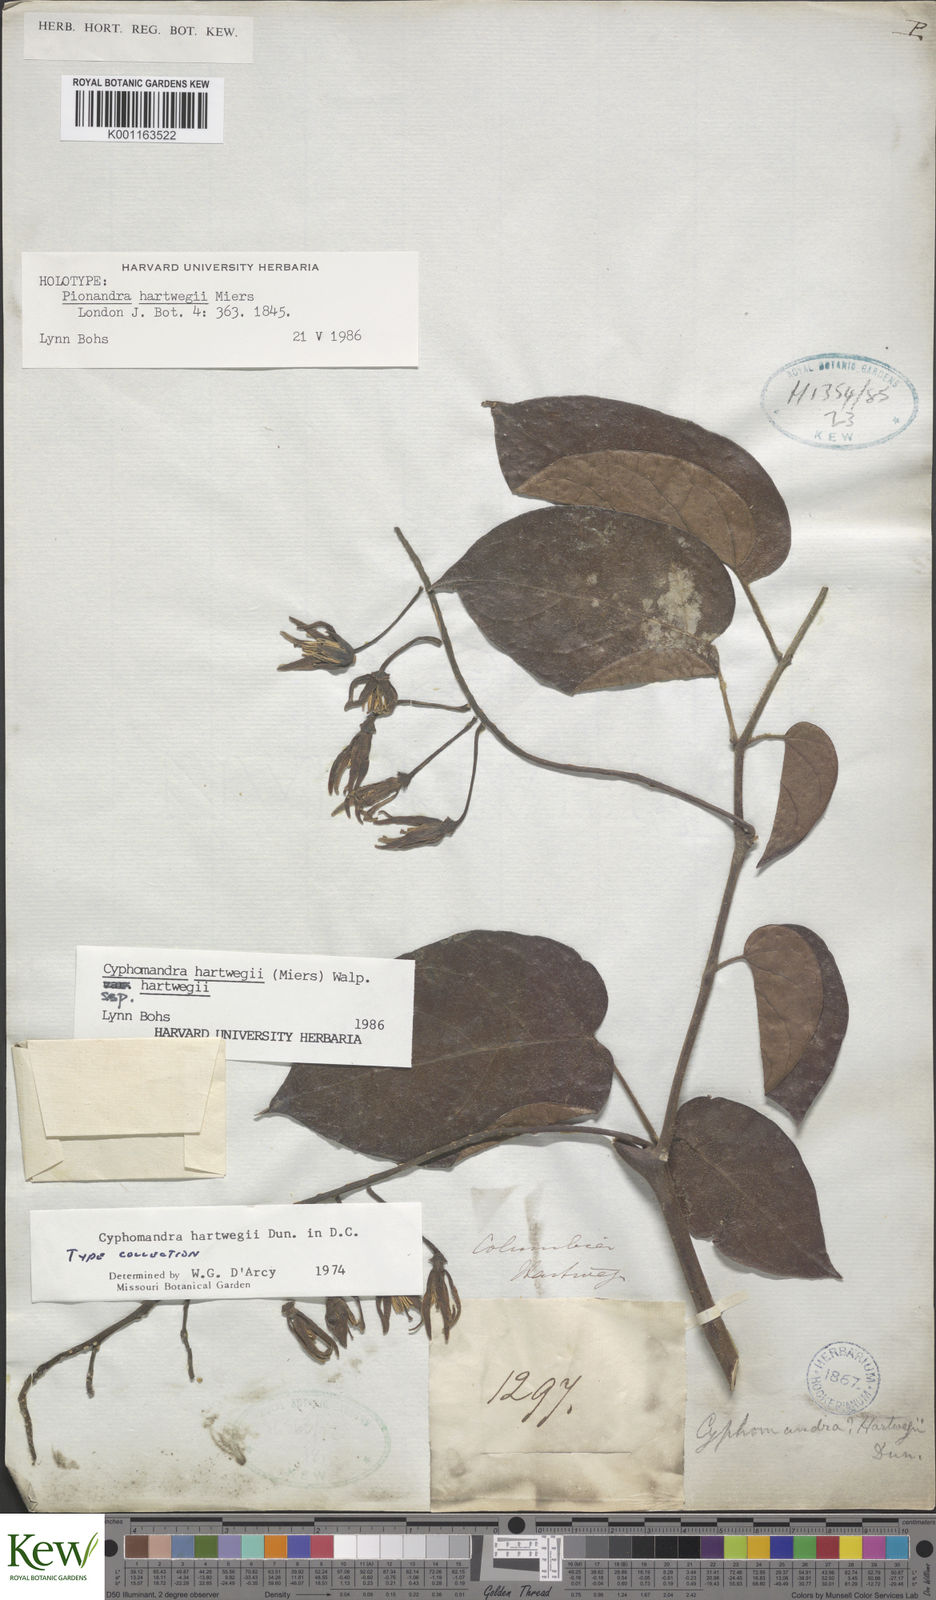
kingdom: Plantae
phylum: Tracheophyta
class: Magnoliopsida
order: Solanales
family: Solanaceae
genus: Solanum
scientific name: Solanum splendens
